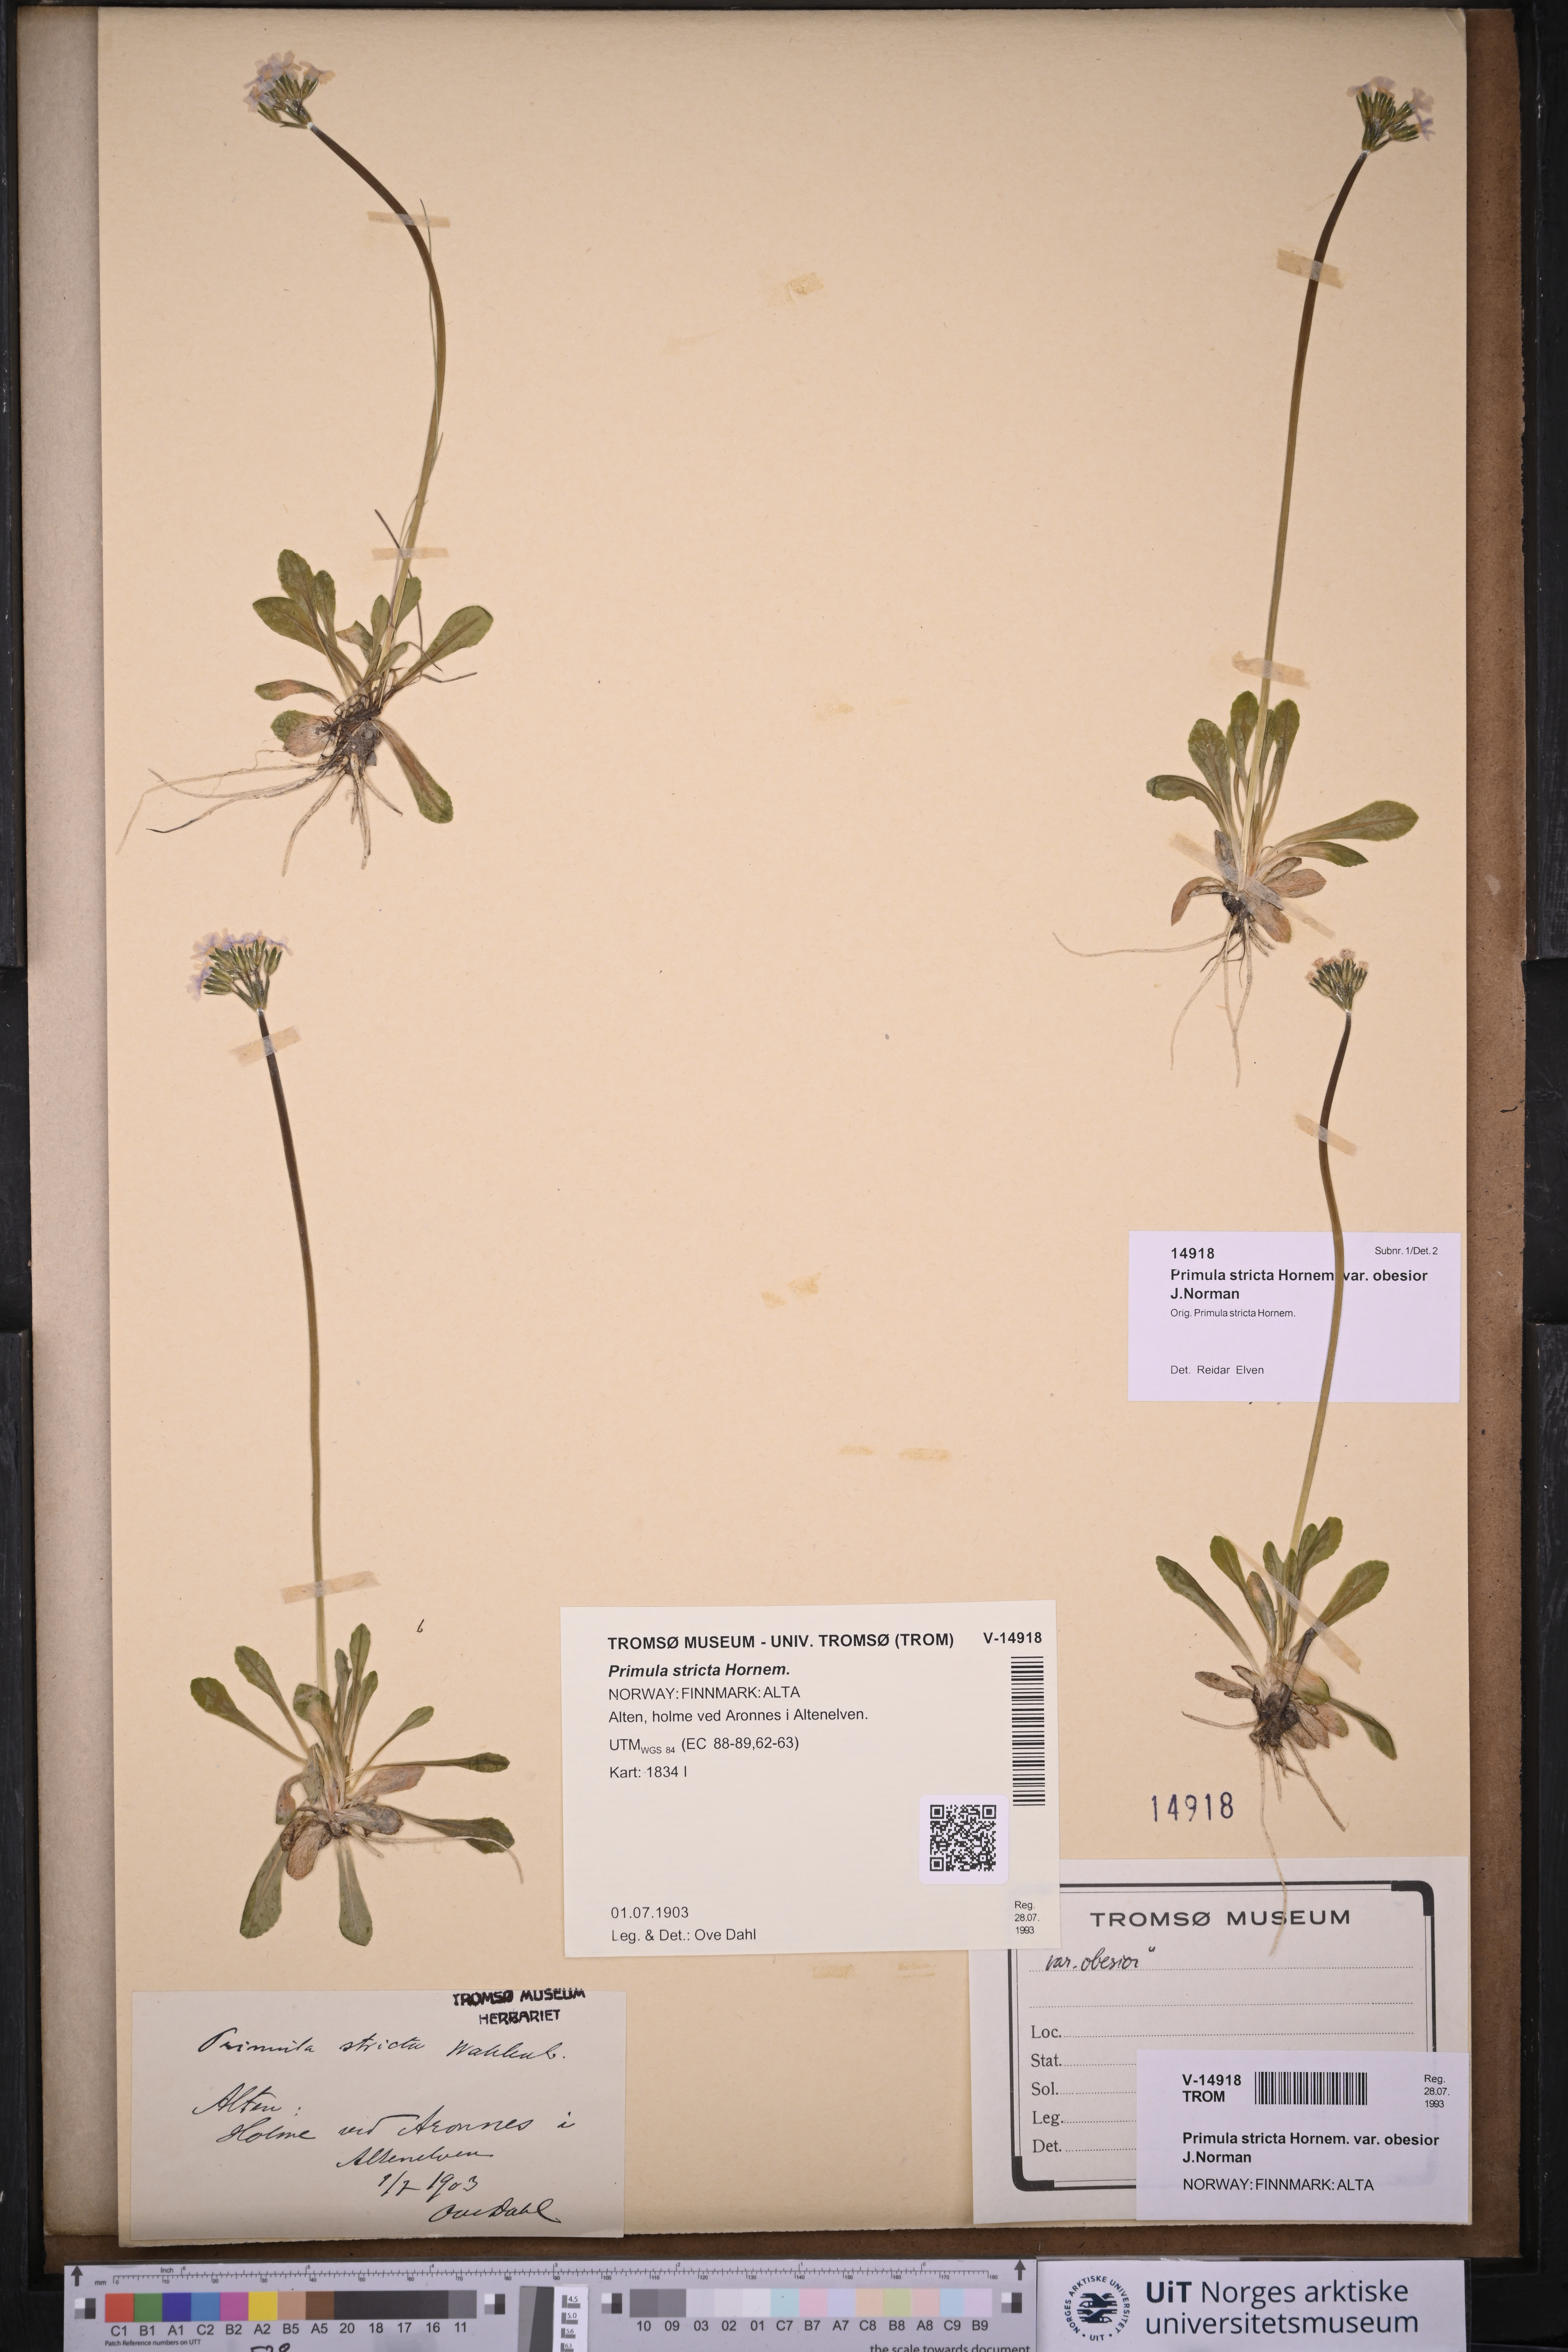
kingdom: Plantae
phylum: Tracheophyta
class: Magnoliopsida
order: Ericales
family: Primulaceae
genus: Primula
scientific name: Primula stricta
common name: Coastal primrose
